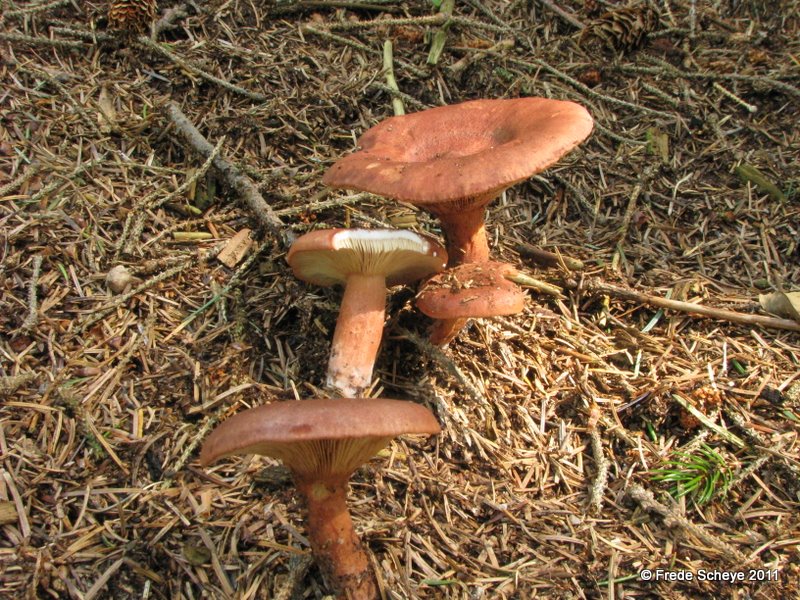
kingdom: Fungi
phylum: Basidiomycota
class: Agaricomycetes
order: Russulales
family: Russulaceae
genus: Lactarius
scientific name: Lactarius rufus
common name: rødbrun mælkehat
